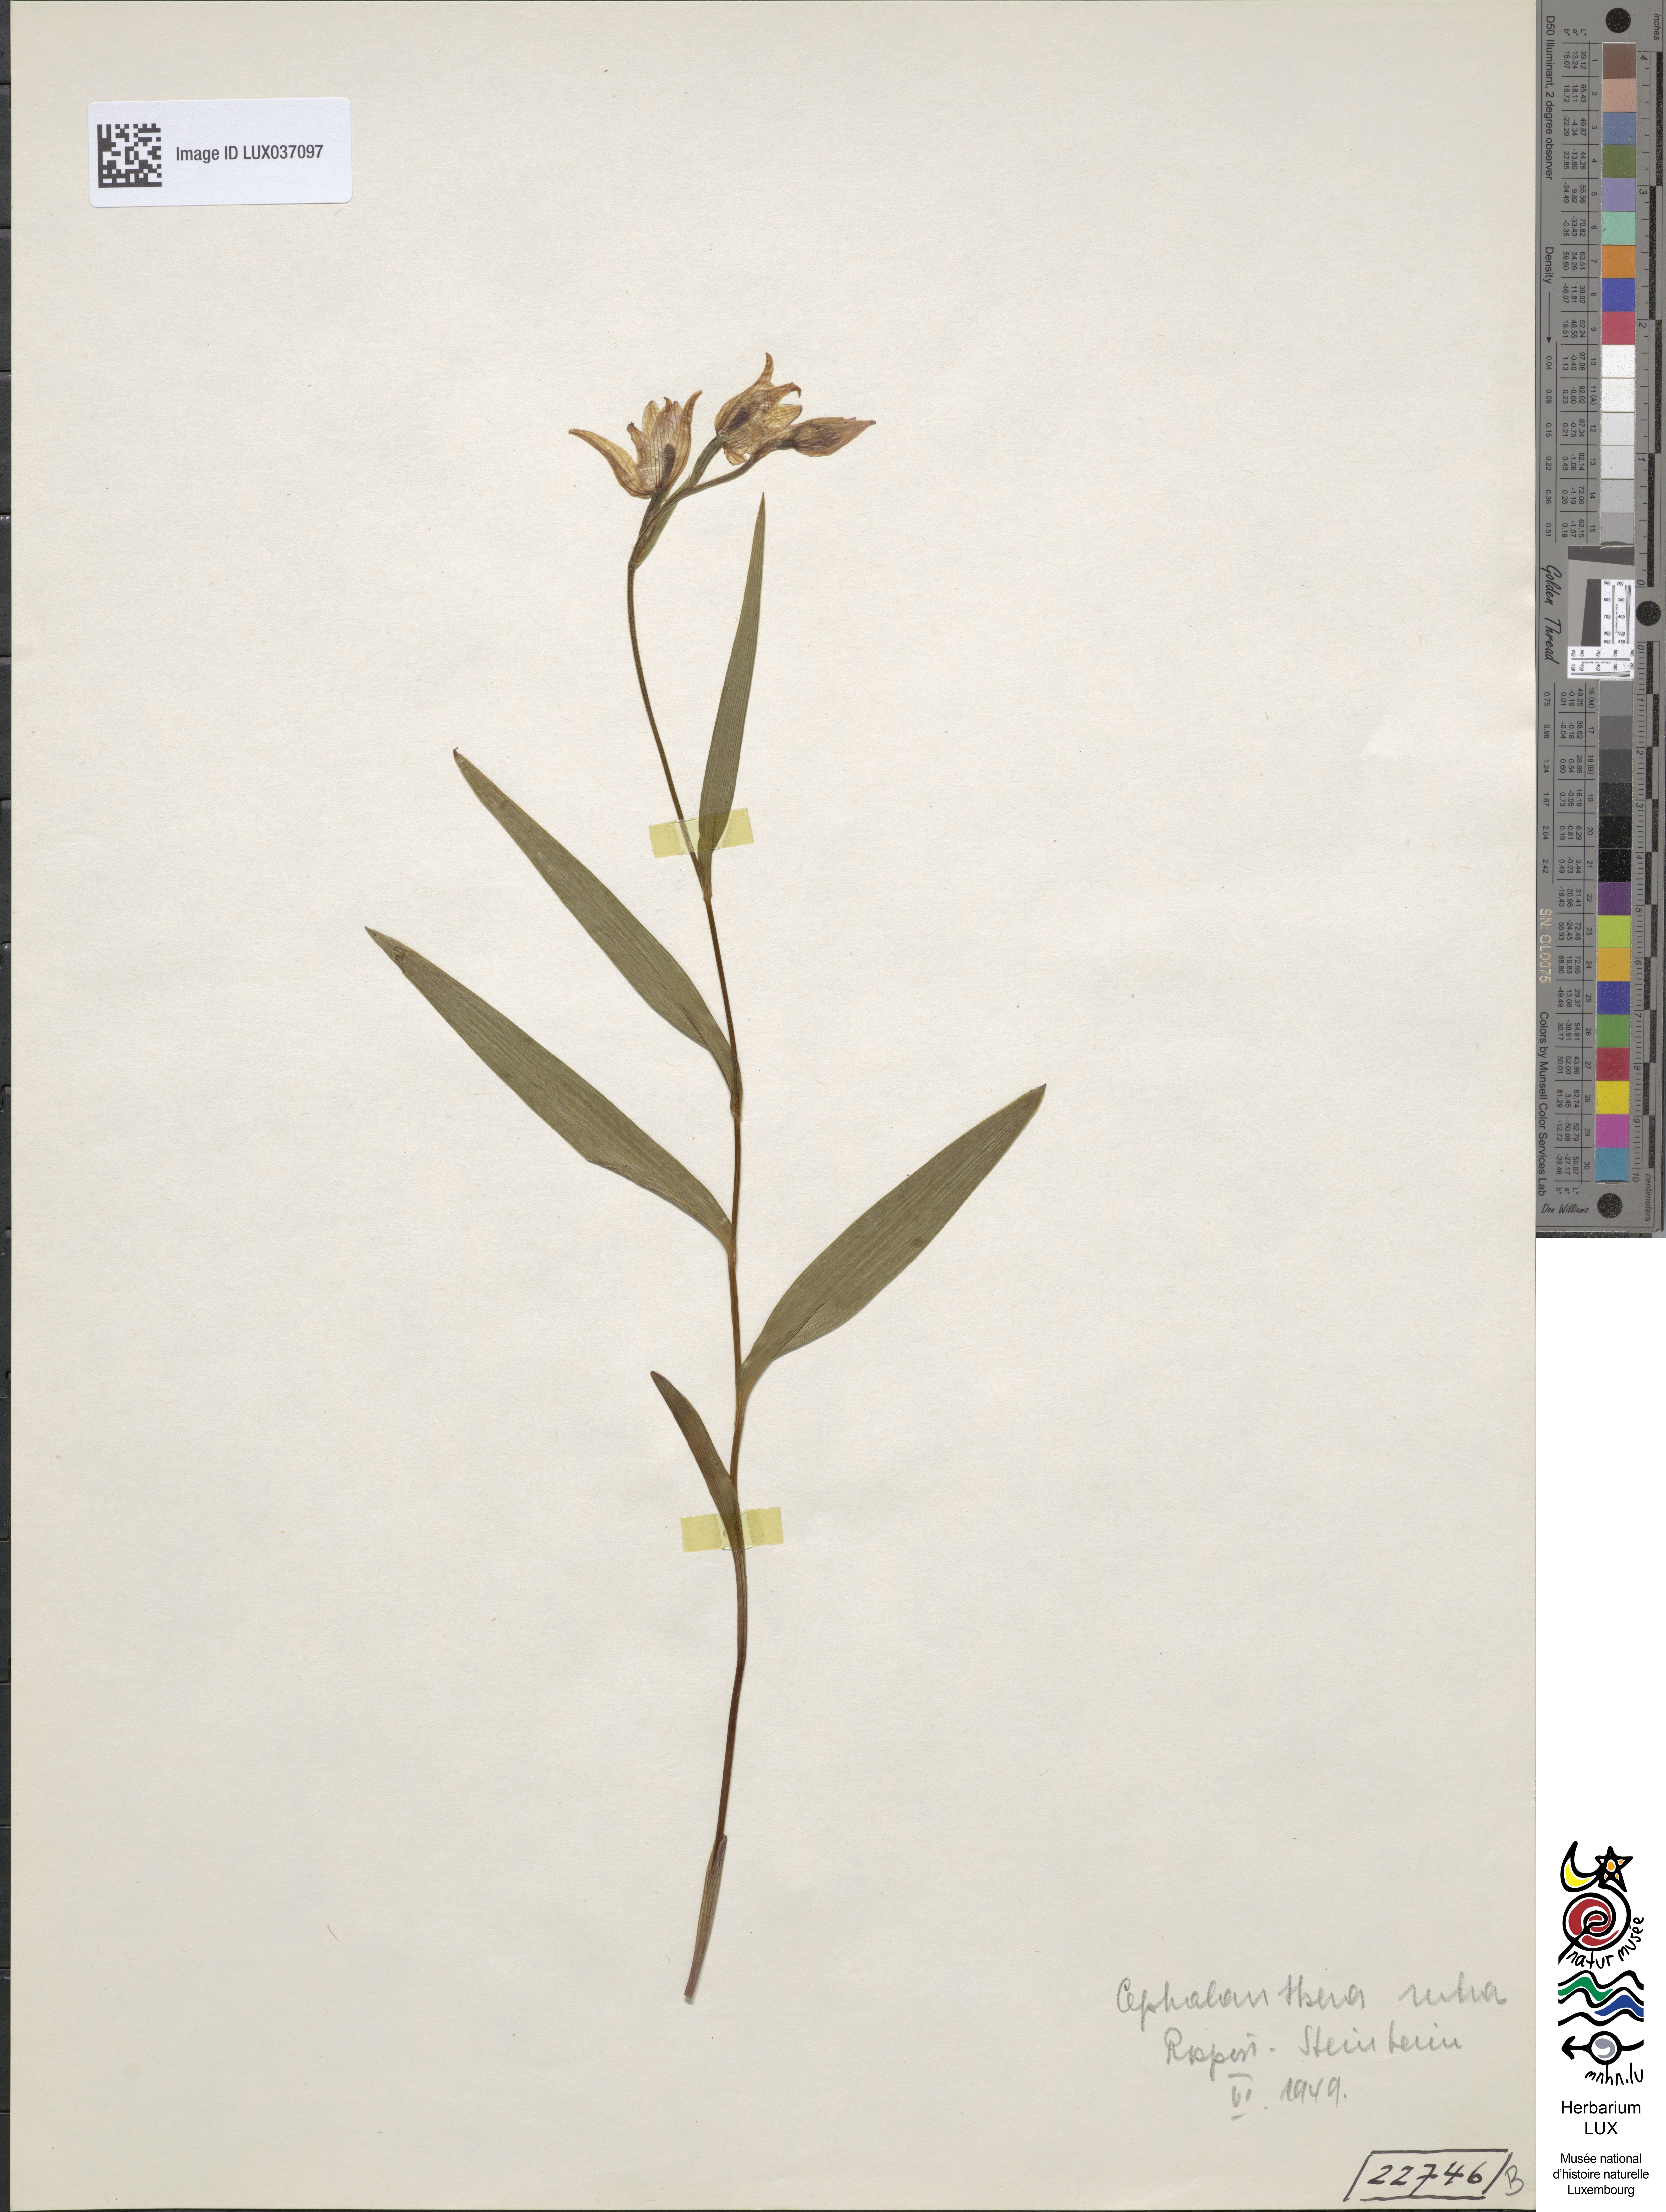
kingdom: Plantae
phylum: Tracheophyta
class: Liliopsida
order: Asparagales
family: Orchidaceae
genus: Cephalanthera
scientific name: Cephalanthera rubra
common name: Red helleborine
